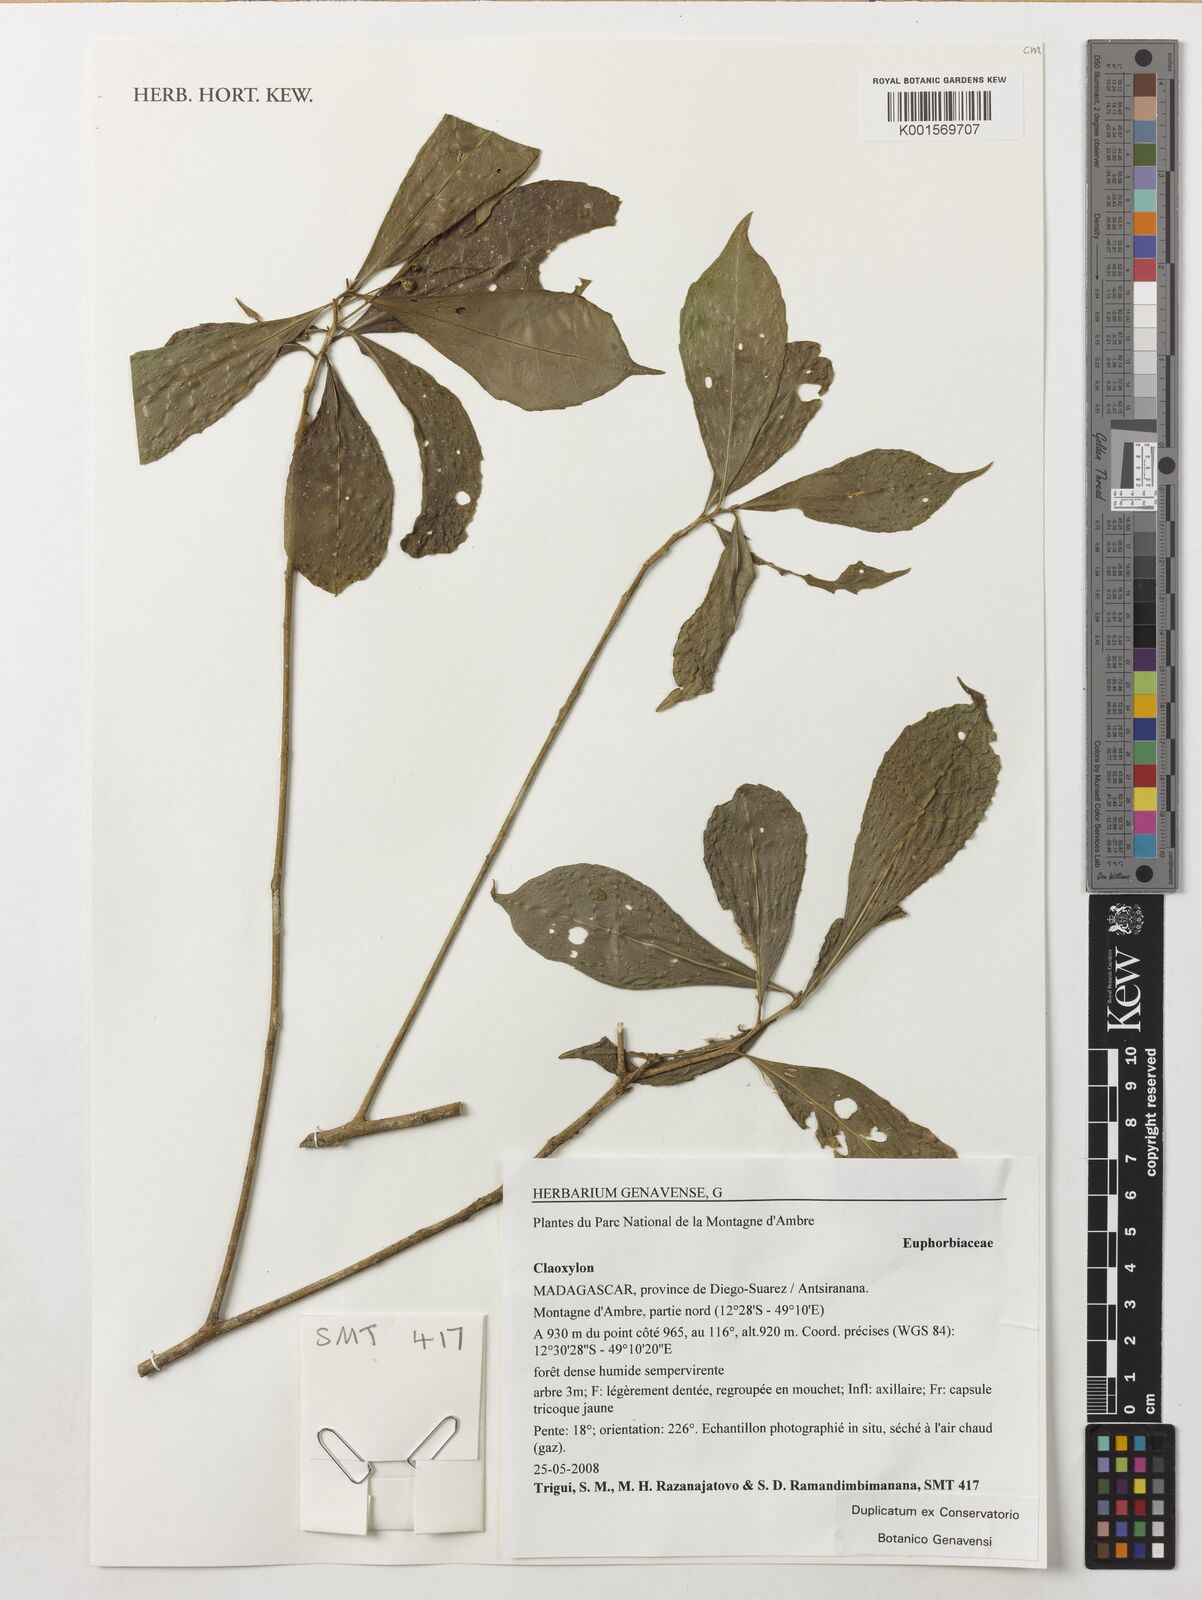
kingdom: Plantae
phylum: Tracheophyta
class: Magnoliopsida
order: Malpighiales
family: Euphorbiaceae
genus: Claoxylon
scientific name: Claoxylon
